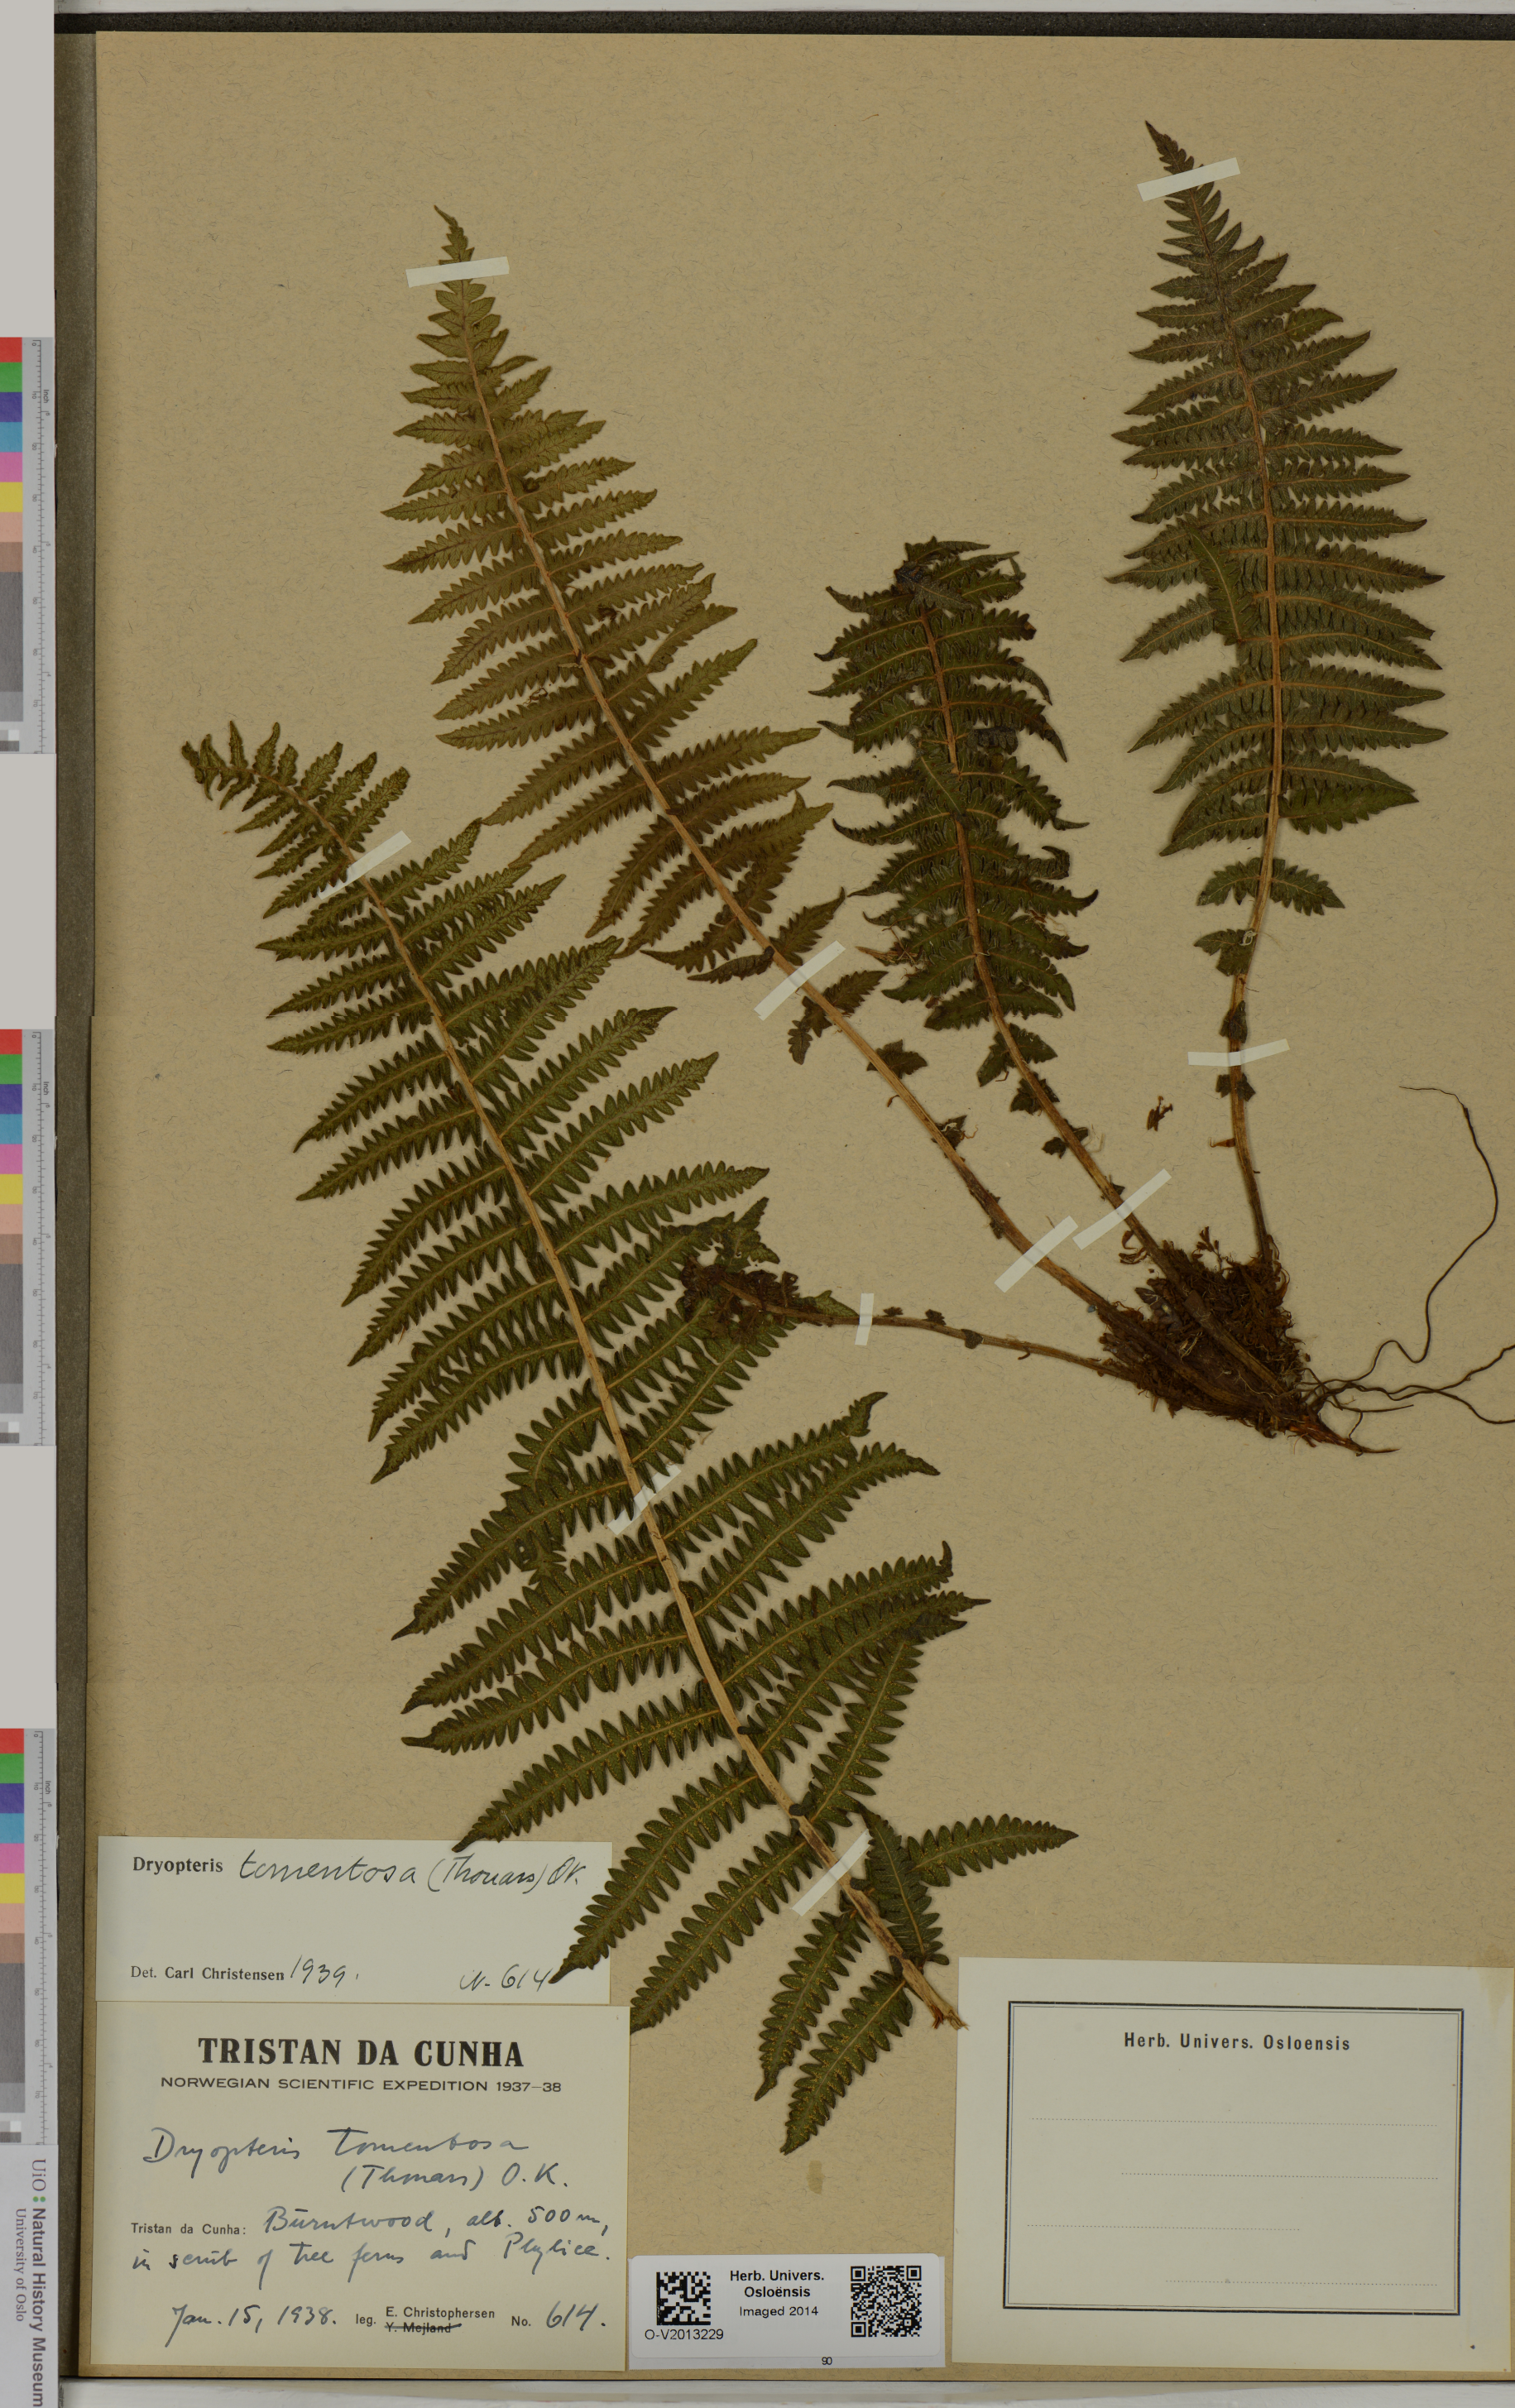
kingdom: Plantae
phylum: Tracheophyta
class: Polypodiopsida
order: Polypodiales
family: Thelypteridaceae
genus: Amauropelta
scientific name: Amauropelta tomentosa
